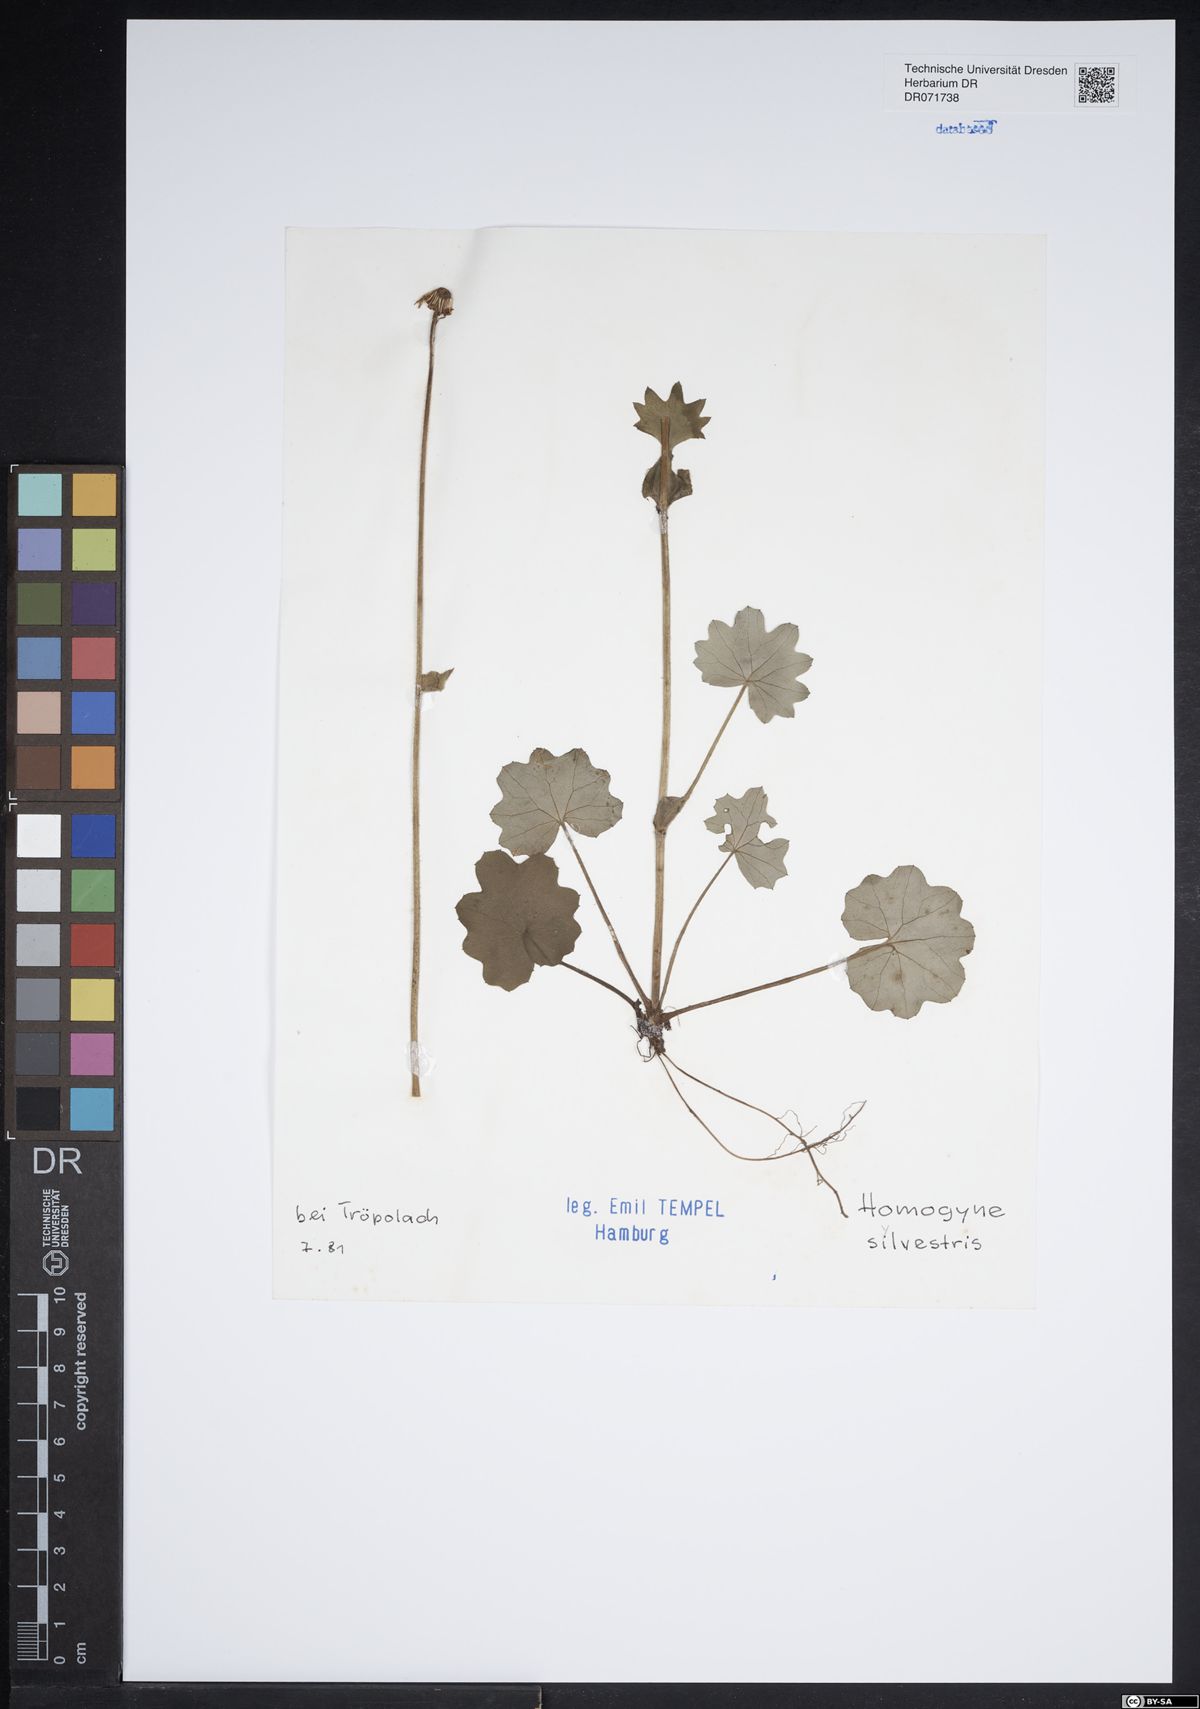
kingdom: Plantae
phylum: Tracheophyta
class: Magnoliopsida
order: Asterales
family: Asteraceae
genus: Homogyne
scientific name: Homogyne sylvestris
